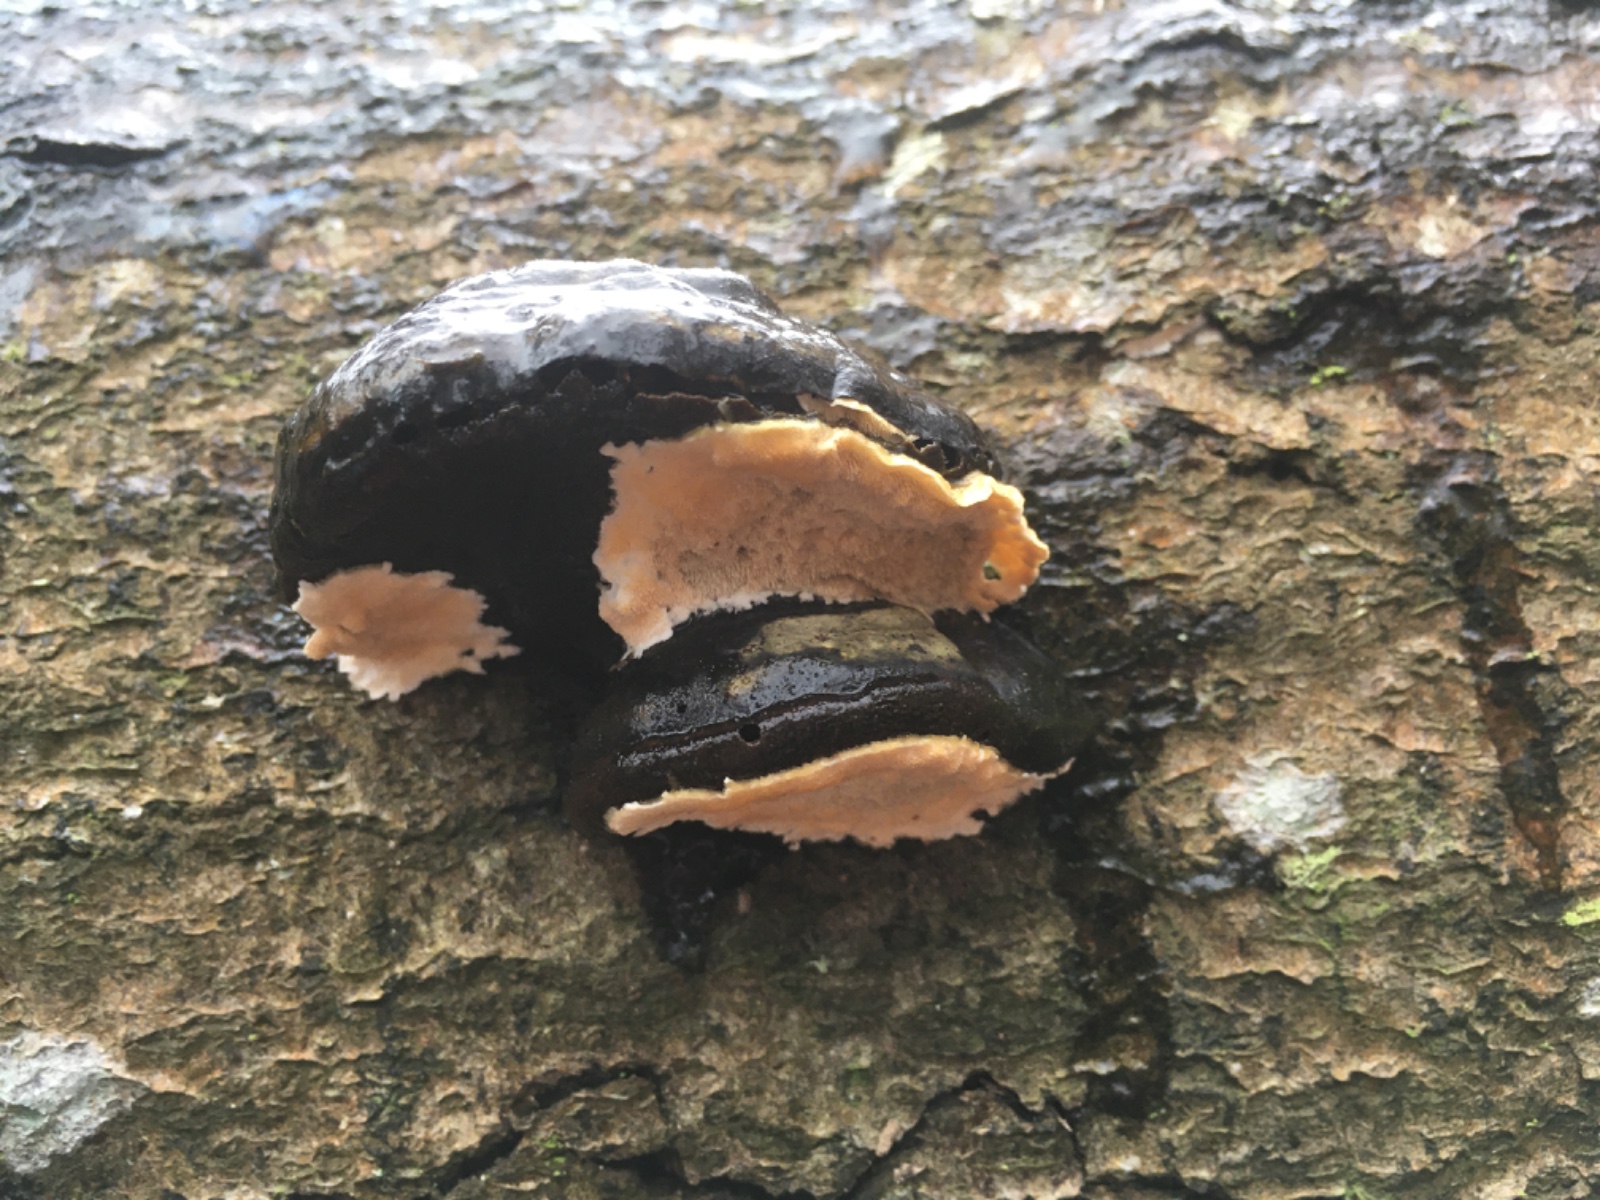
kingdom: Fungi
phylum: Basidiomycota
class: Agaricomycetes
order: Polyporales
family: Steccherinaceae
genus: Steccherinum
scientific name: Steccherinum ochraceum
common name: almindelig skønpig
